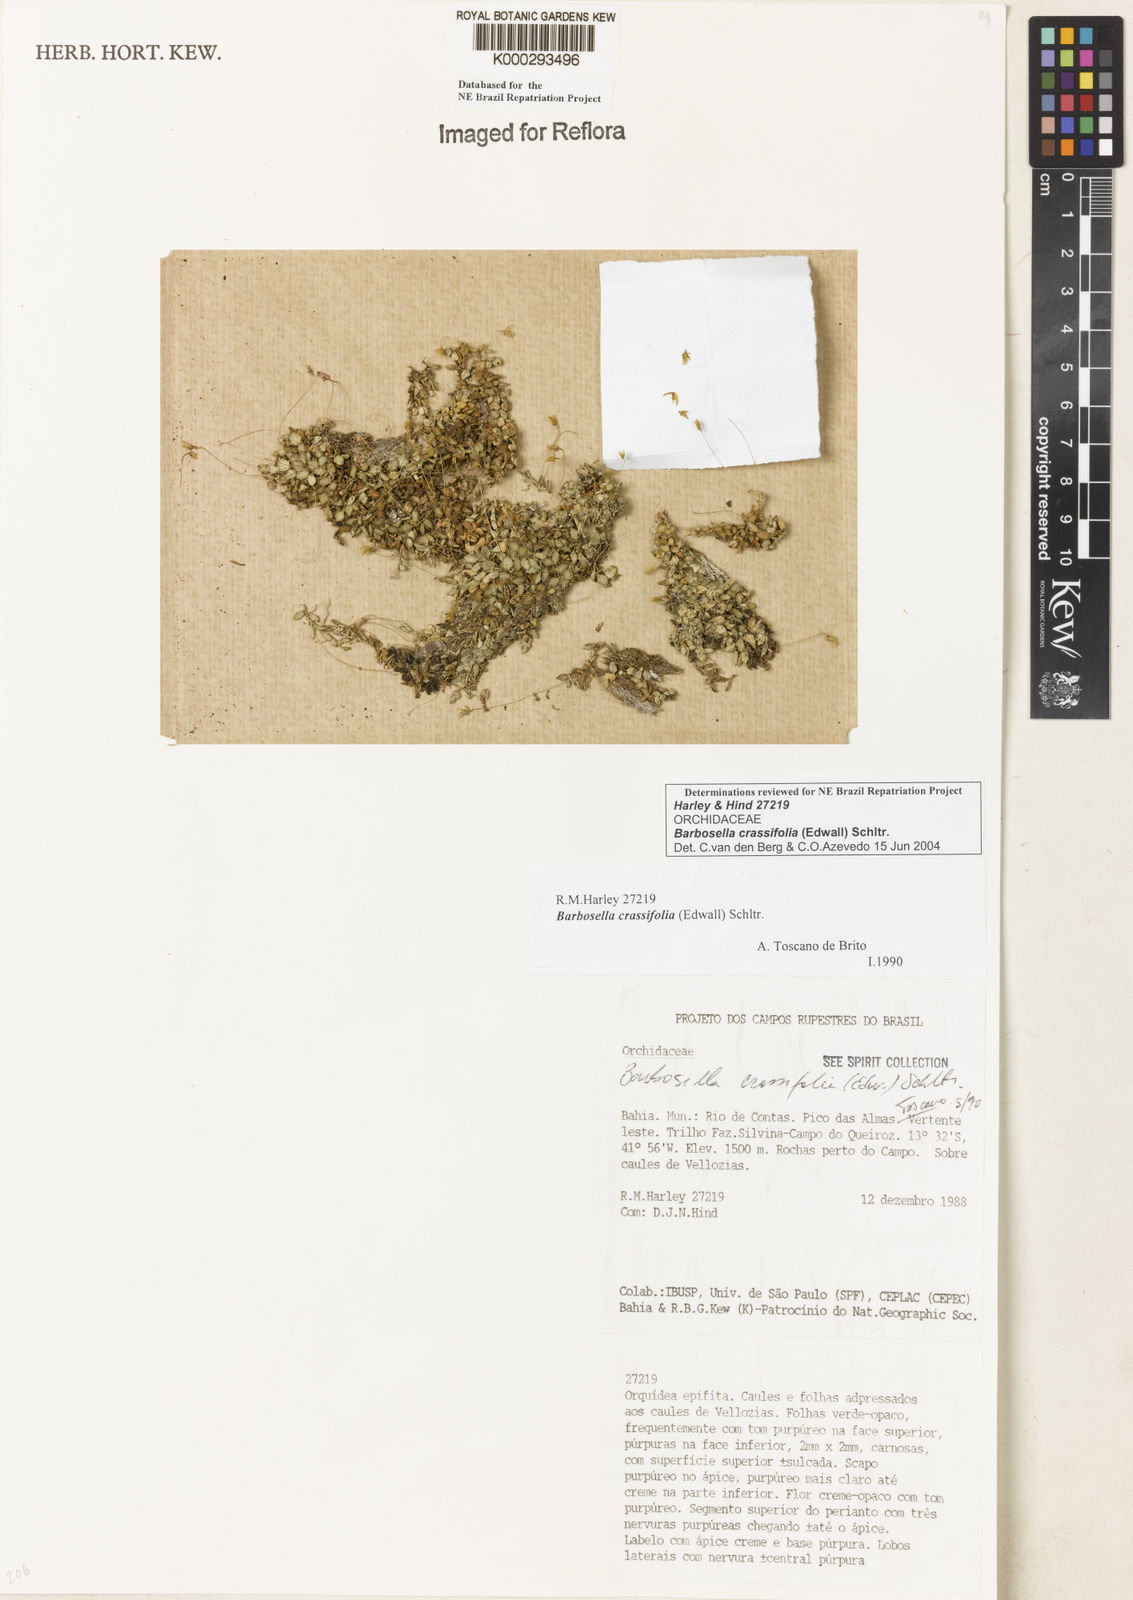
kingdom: Plantae
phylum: Tracheophyta
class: Liliopsida
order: Asparagales
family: Orchidaceae
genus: Barbosella
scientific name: Barbosella crassifolia
